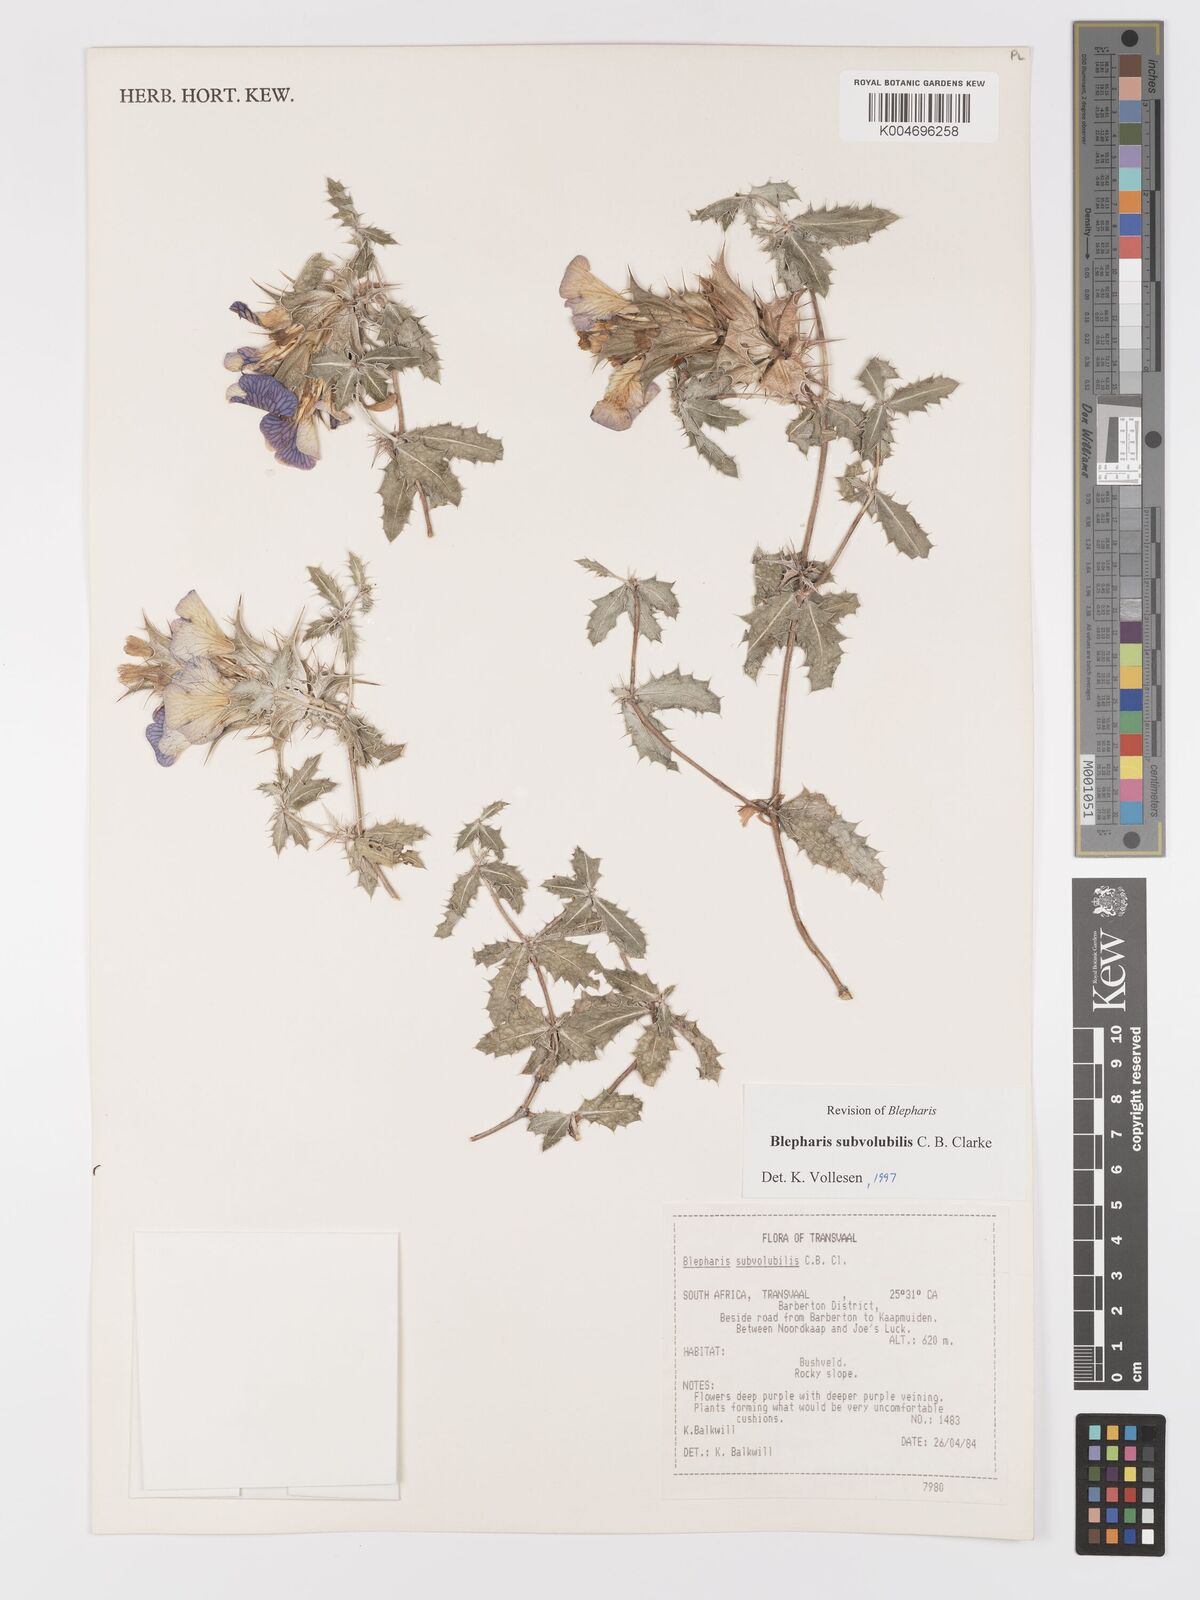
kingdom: Plantae
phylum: Tracheophyta
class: Magnoliopsida
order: Lamiales
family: Acanthaceae
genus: Blepharis
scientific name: Blepharis subvolubilis
